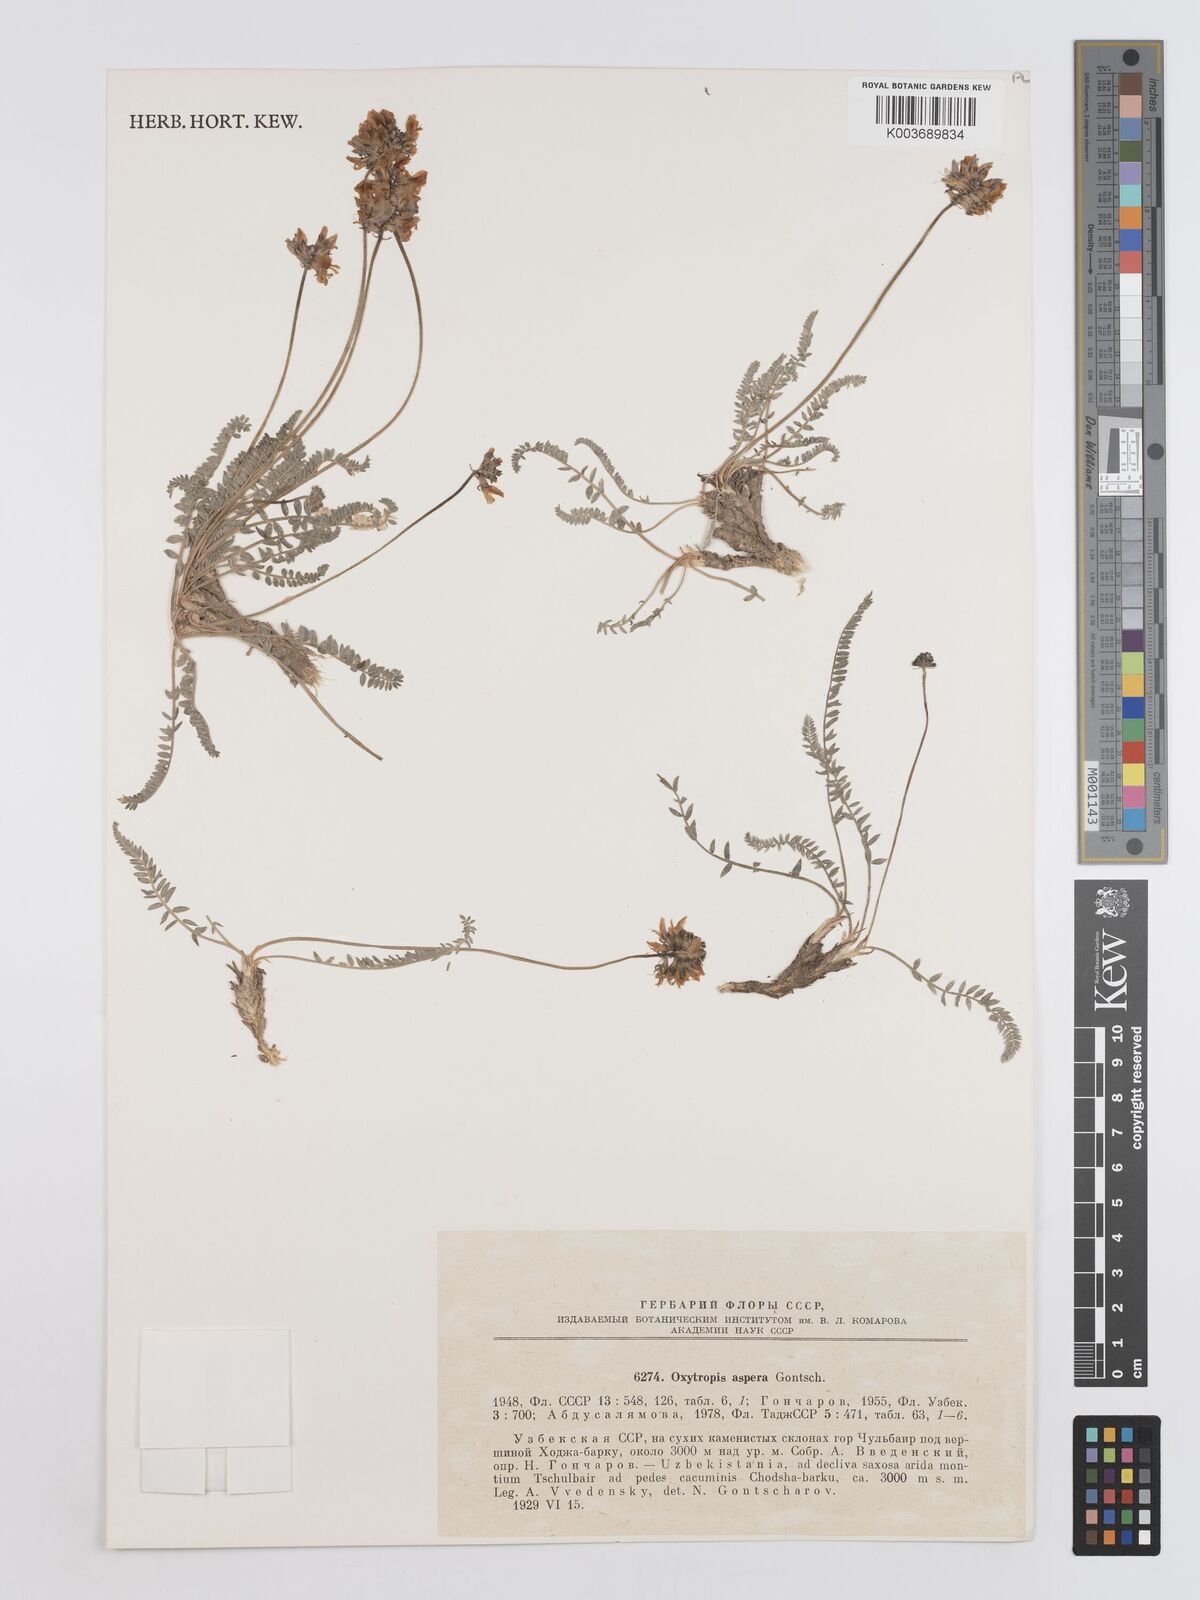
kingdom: Plantae
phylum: Tracheophyta
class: Magnoliopsida
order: Fabales
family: Fabaceae
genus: Oxytropis
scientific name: Oxytropis aspera
